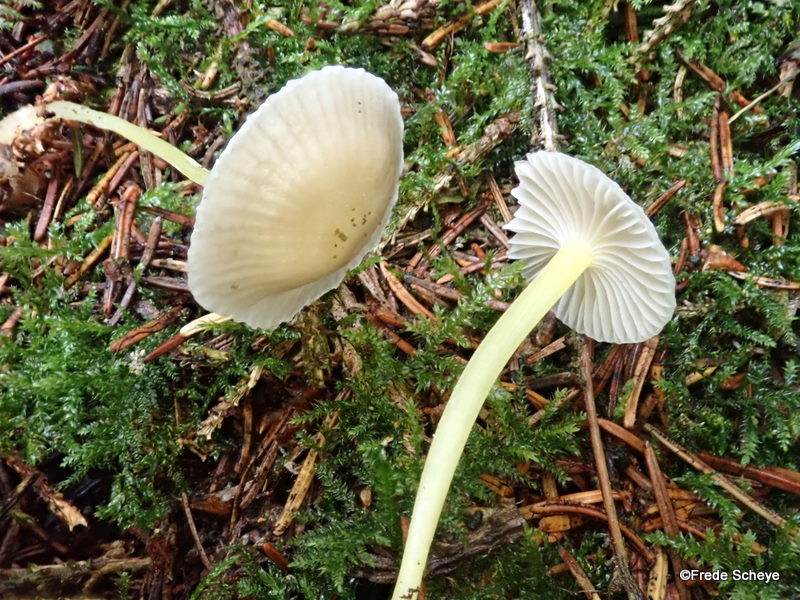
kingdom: Fungi
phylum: Basidiomycota
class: Agaricomycetes
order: Agaricales
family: Mycenaceae
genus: Mycena
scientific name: Mycena epipterygia
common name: gulstokket huesvamp
